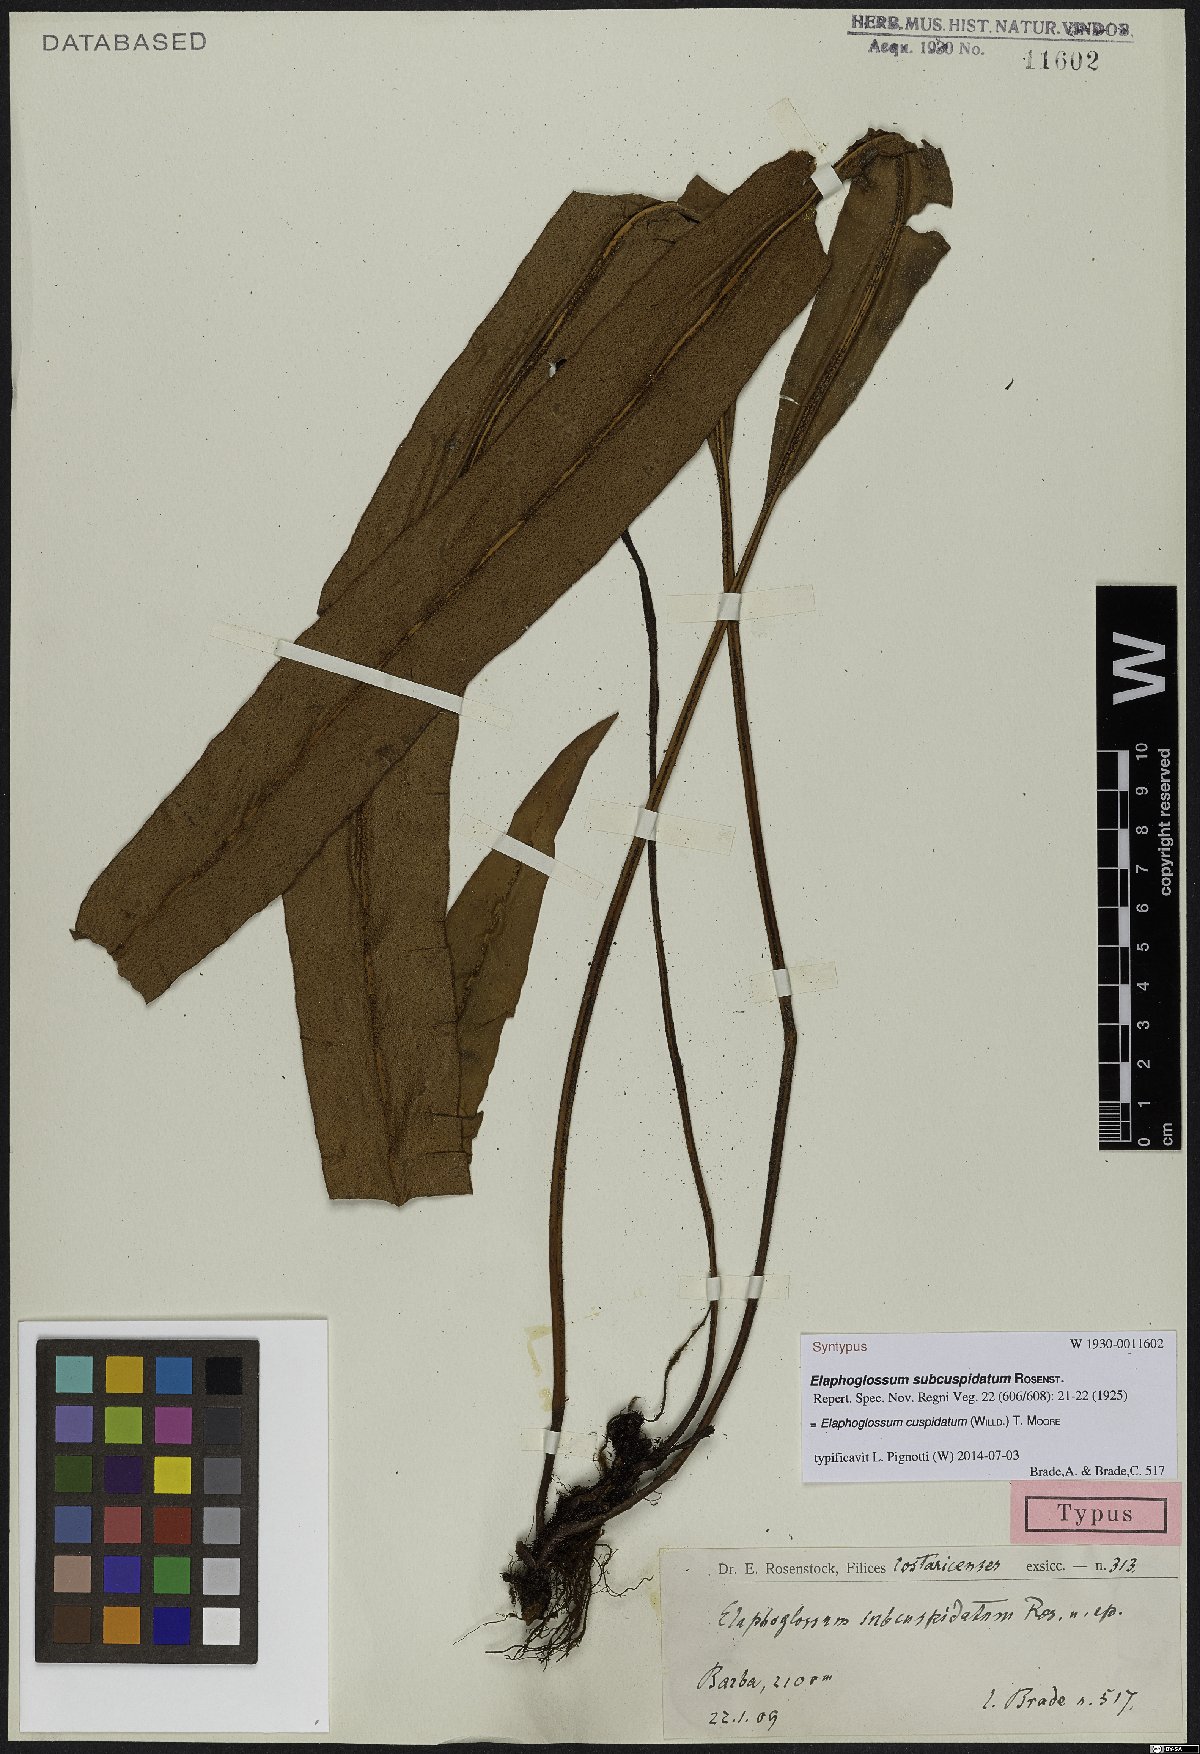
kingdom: Plantae
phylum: Tracheophyta
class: Polypodiopsida
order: Polypodiales
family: Dryopteridaceae
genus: Elaphoglossum
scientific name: Elaphoglossum cuspidatum
